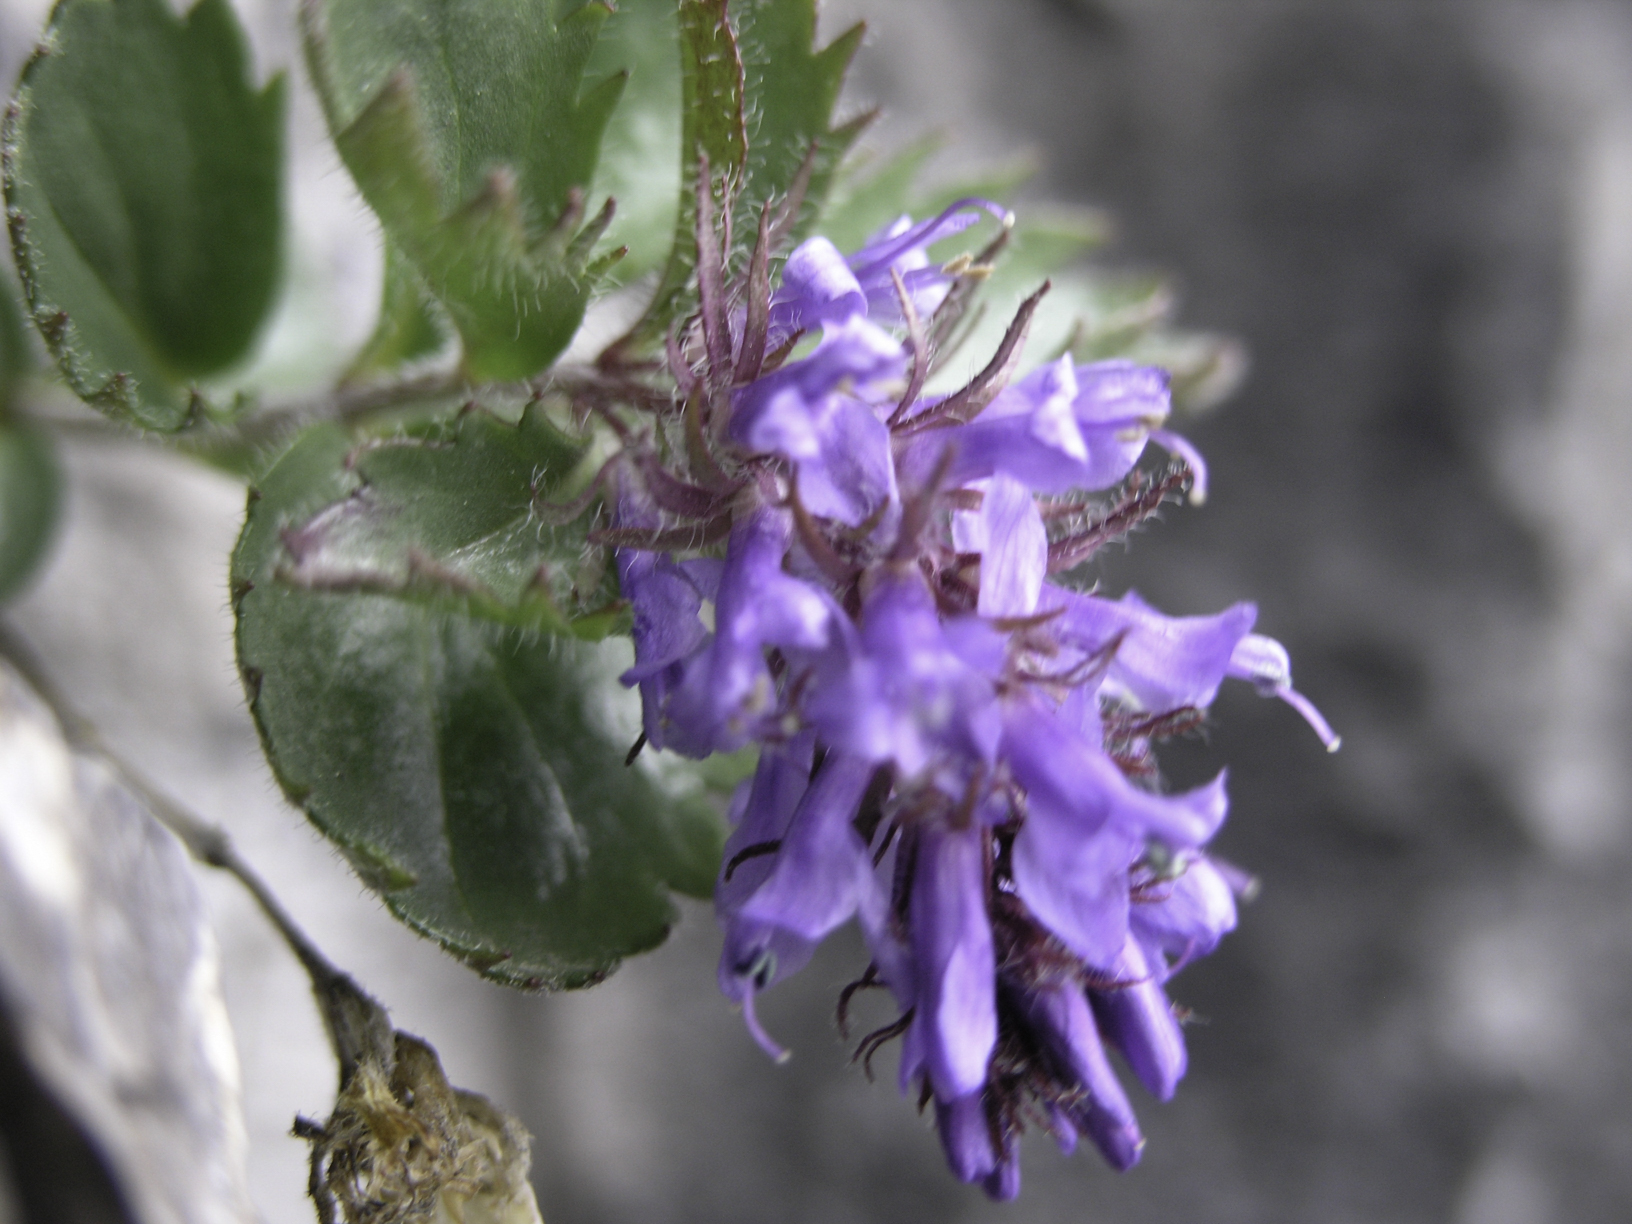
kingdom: Plantae
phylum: Tracheophyta
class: Magnoliopsida
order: Lamiales
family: Plantaginaceae
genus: Paederota
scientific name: Paederota bonarota
